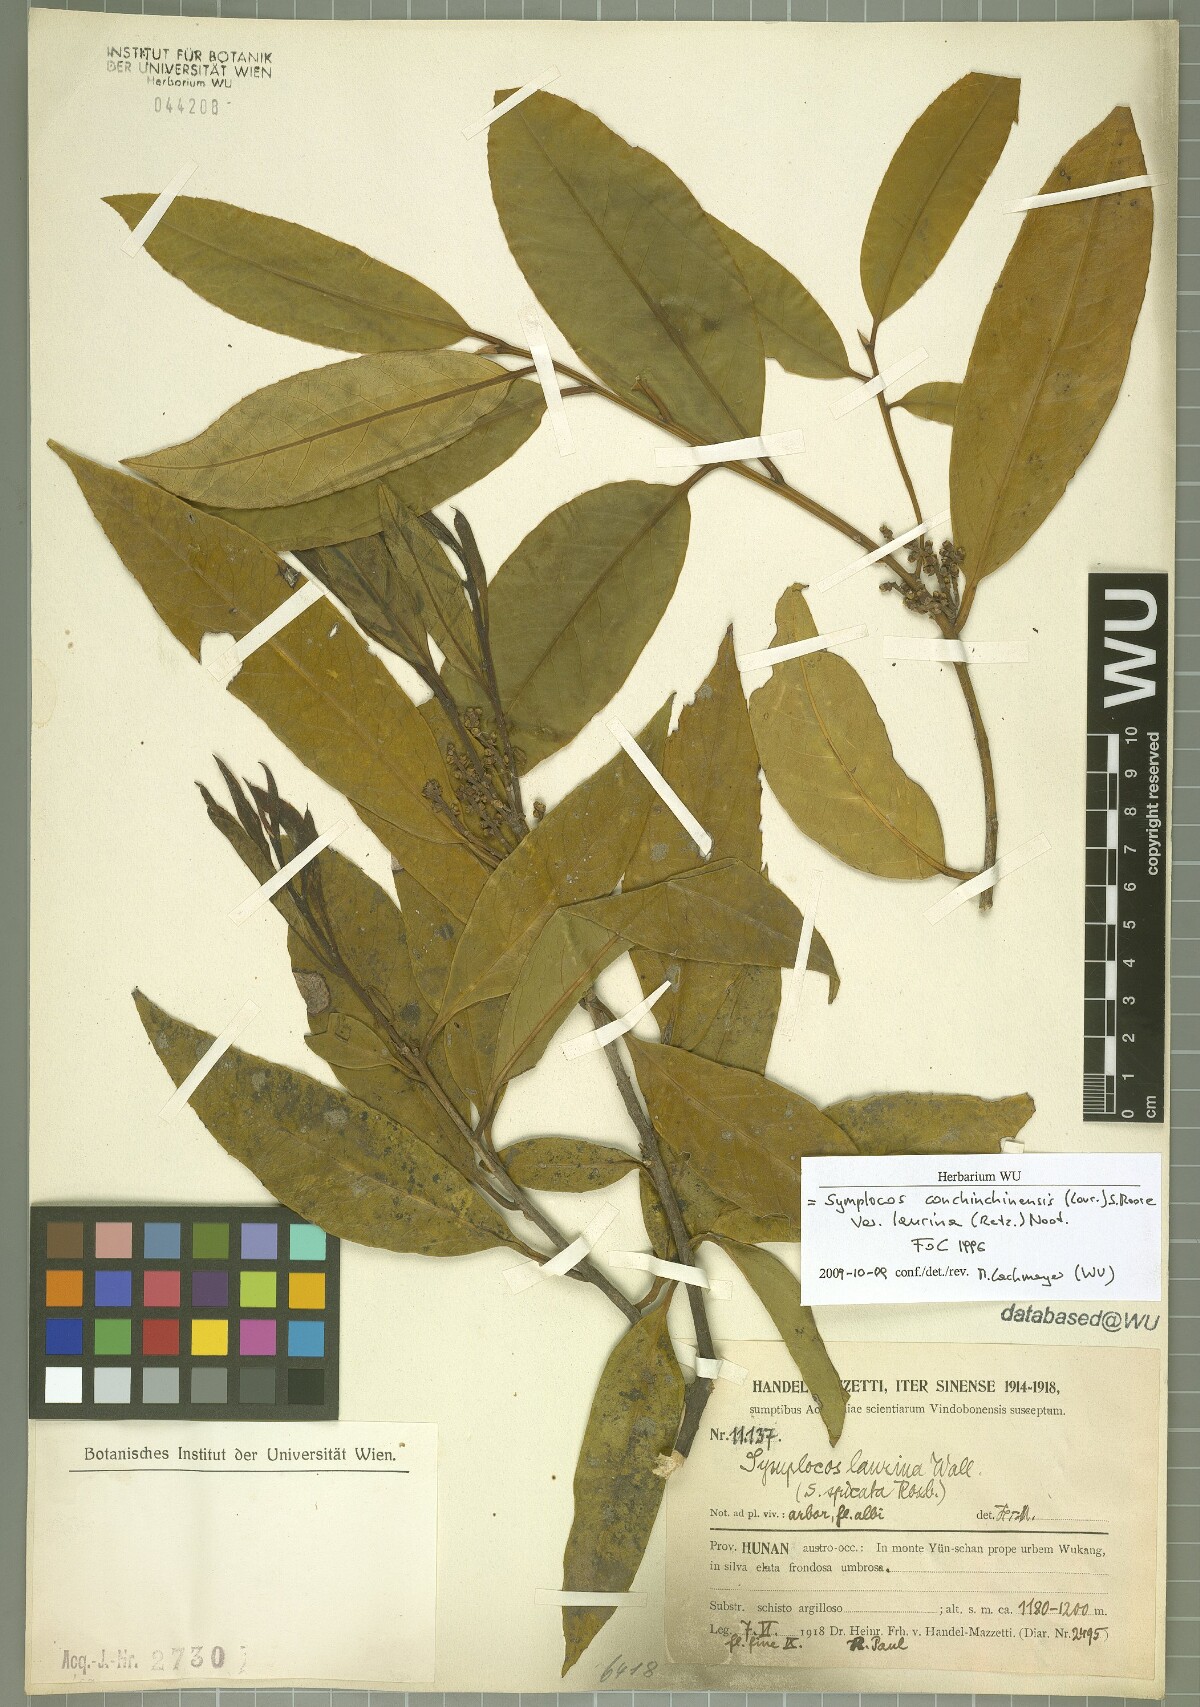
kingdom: Plantae
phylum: Tracheophyta
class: Magnoliopsida
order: Ericales
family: Symplocaceae
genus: Symplocos
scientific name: Symplocos acuminata
